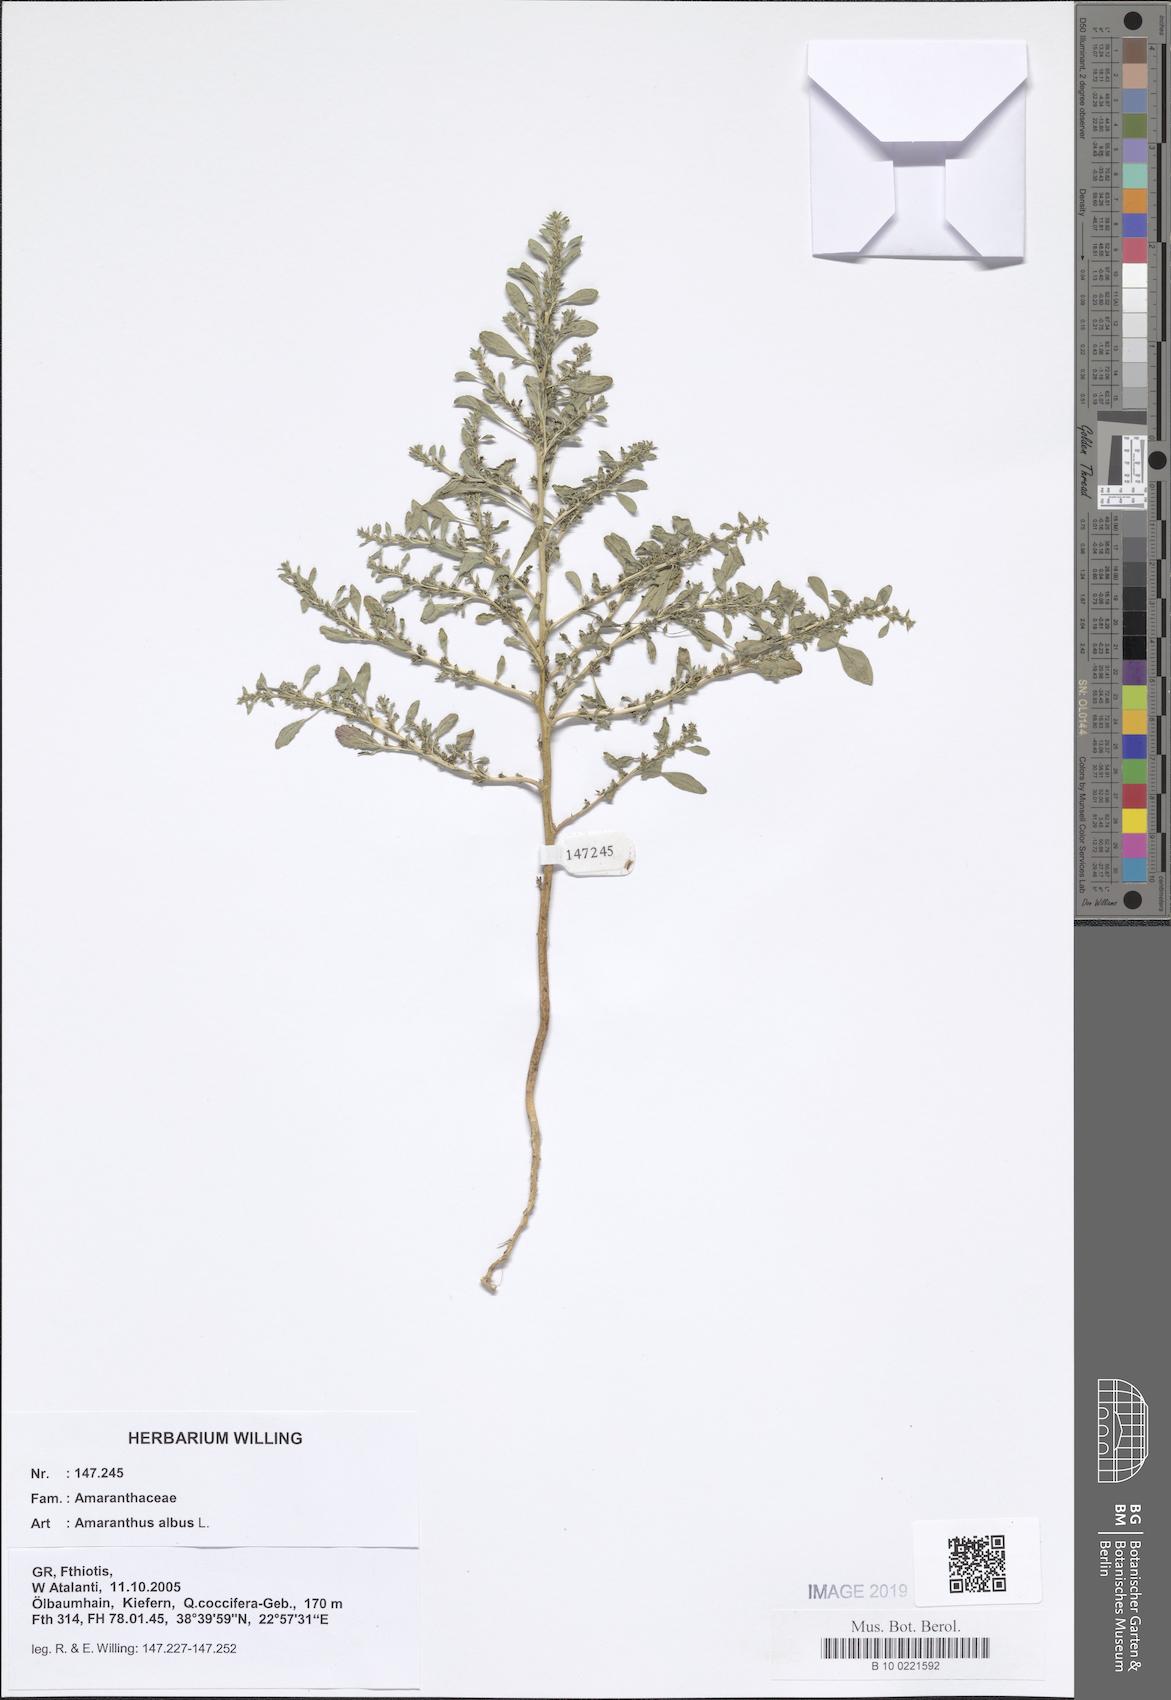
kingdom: Plantae
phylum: Tracheophyta
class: Magnoliopsida
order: Caryophyllales
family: Amaranthaceae
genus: Amaranthus
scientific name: Amaranthus albus
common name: White pigweed
